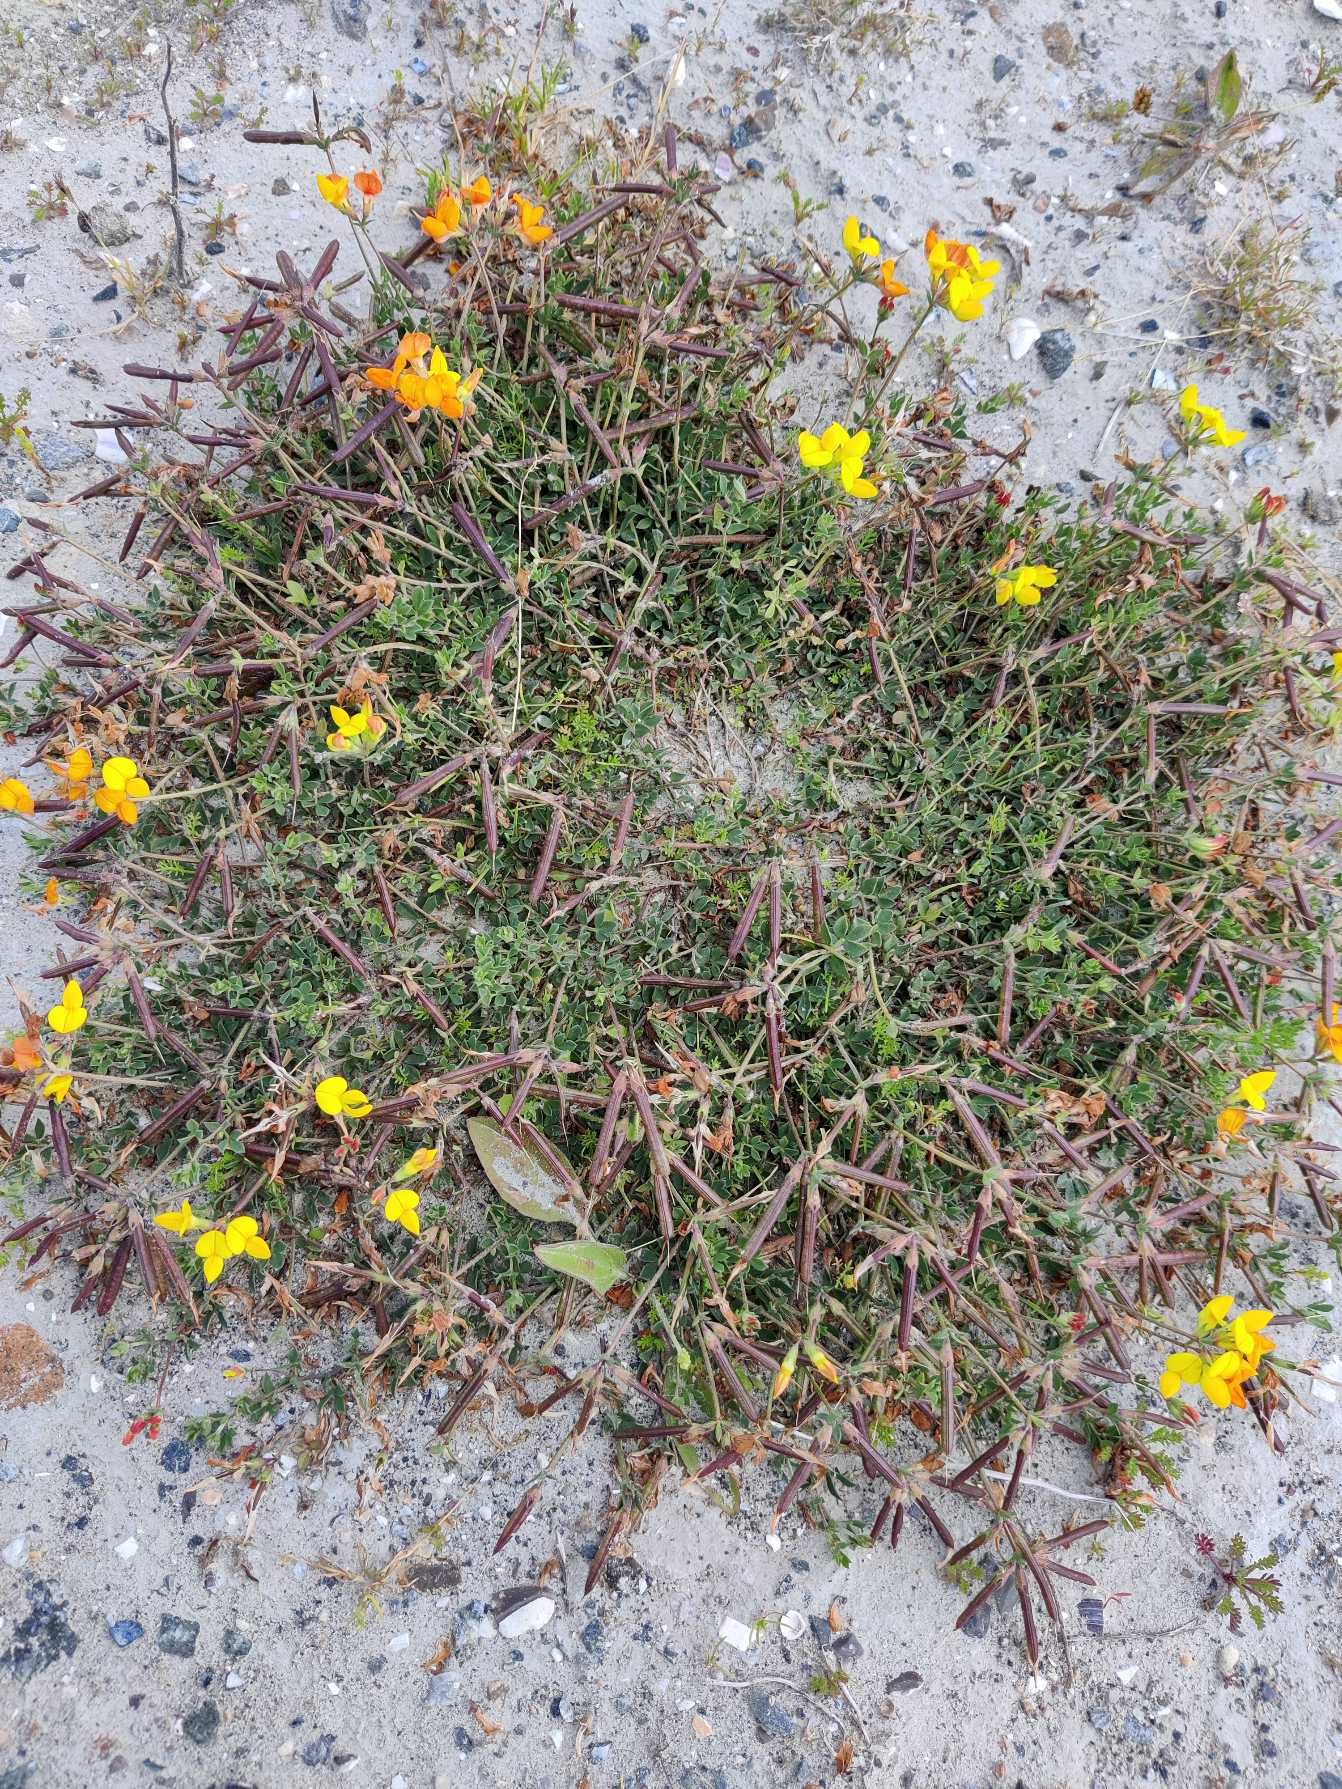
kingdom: Plantae
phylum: Tracheophyta
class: Magnoliopsida
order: Fabales
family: Fabaceae
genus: Lotus
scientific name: Lotus corniculatus
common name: Almindelig kællingetand
